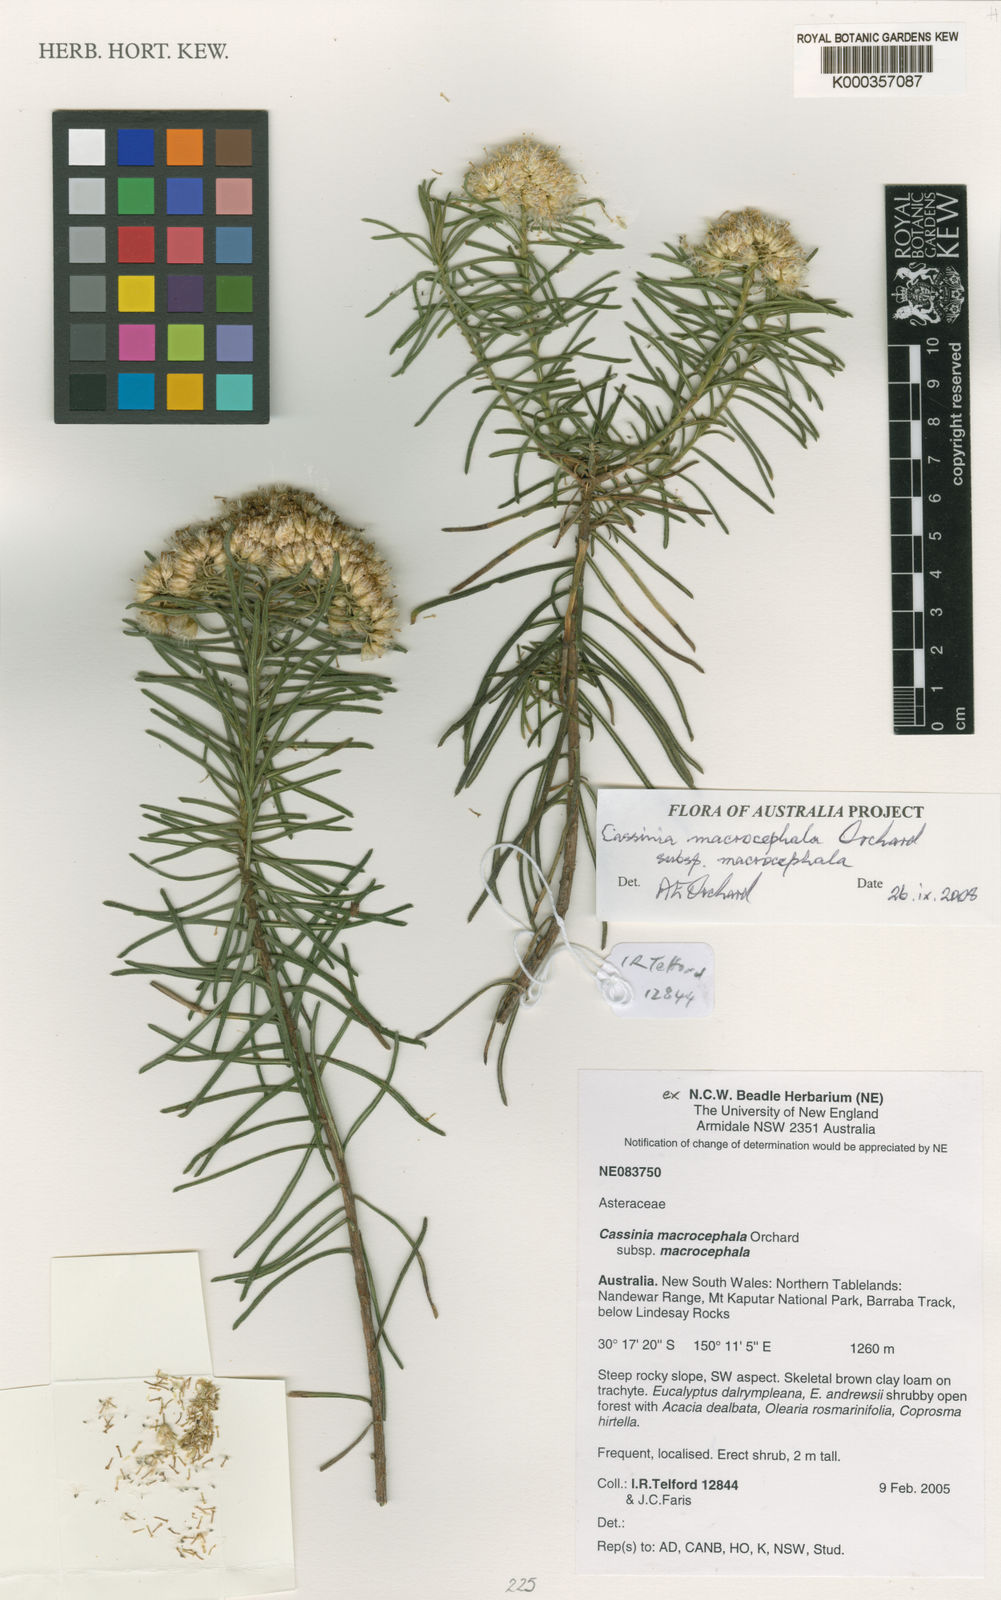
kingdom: Plantae
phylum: Tracheophyta
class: Magnoliopsida
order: Asterales
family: Asteraceae
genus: Cassinia
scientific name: Cassinia macrocephala
